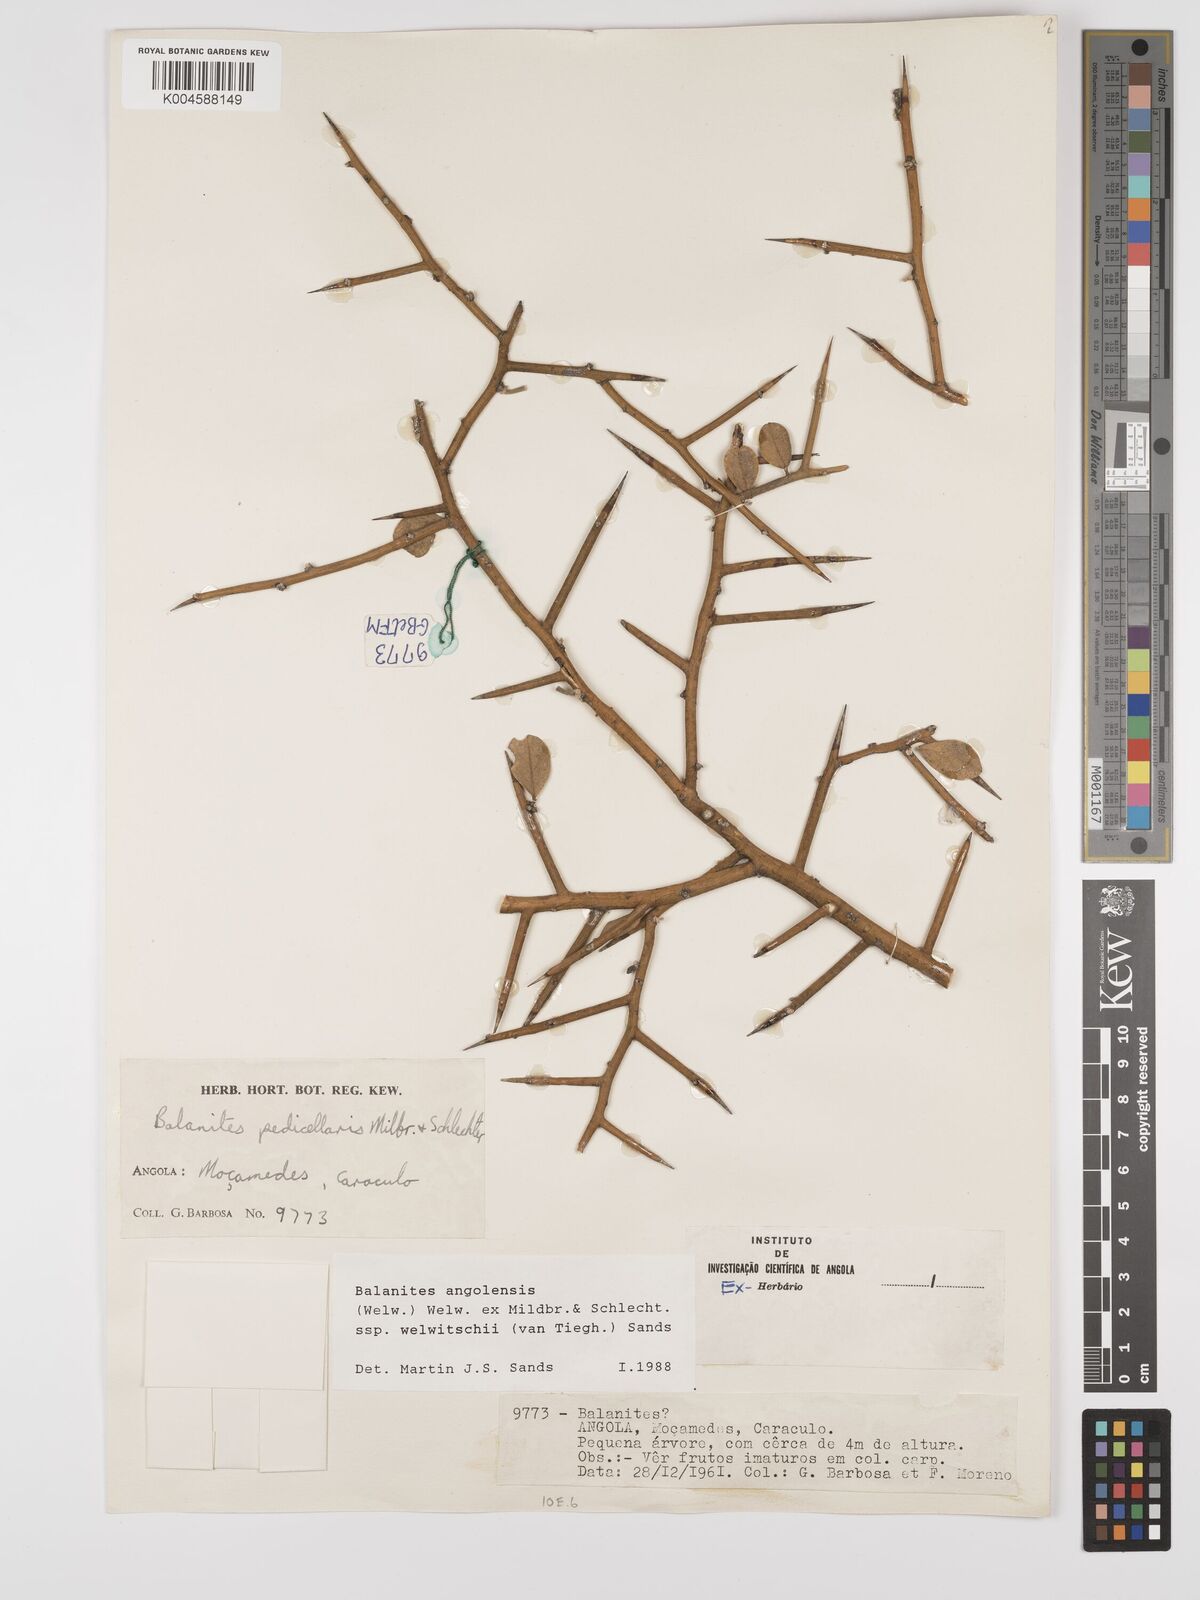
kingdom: Plantae
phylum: Tracheophyta
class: Magnoliopsida
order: Zygophyllales
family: Zygophyllaceae
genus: Balanites
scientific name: Balanites angolensis
